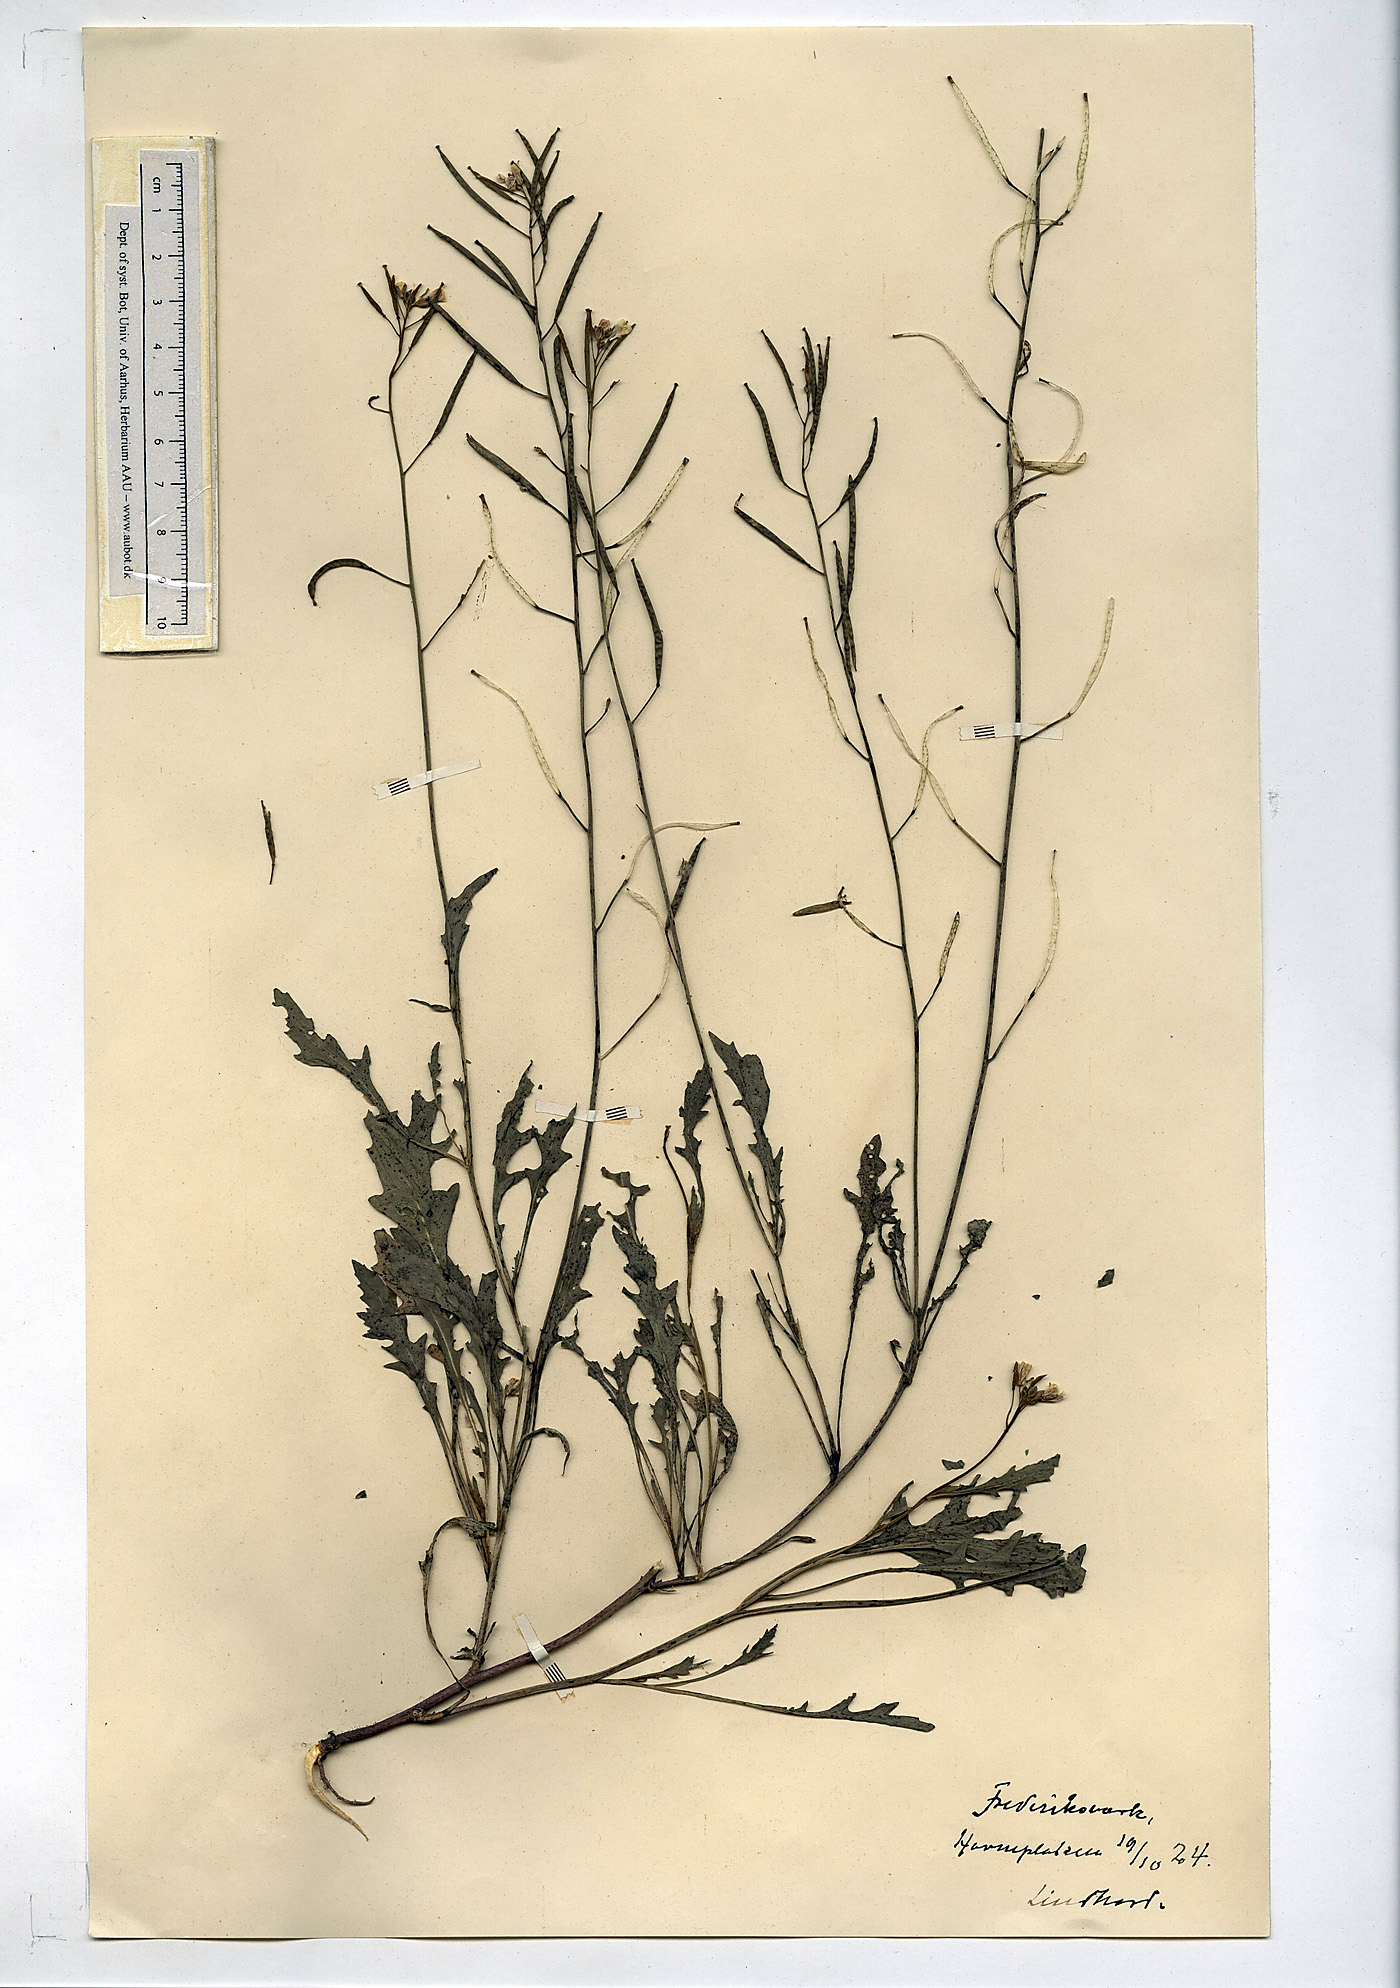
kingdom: Plantae
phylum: Tracheophyta
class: Magnoliopsida
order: Brassicales
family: Brassicaceae
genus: Diplotaxis
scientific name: Diplotaxis muralis
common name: Annual wall-rocket
